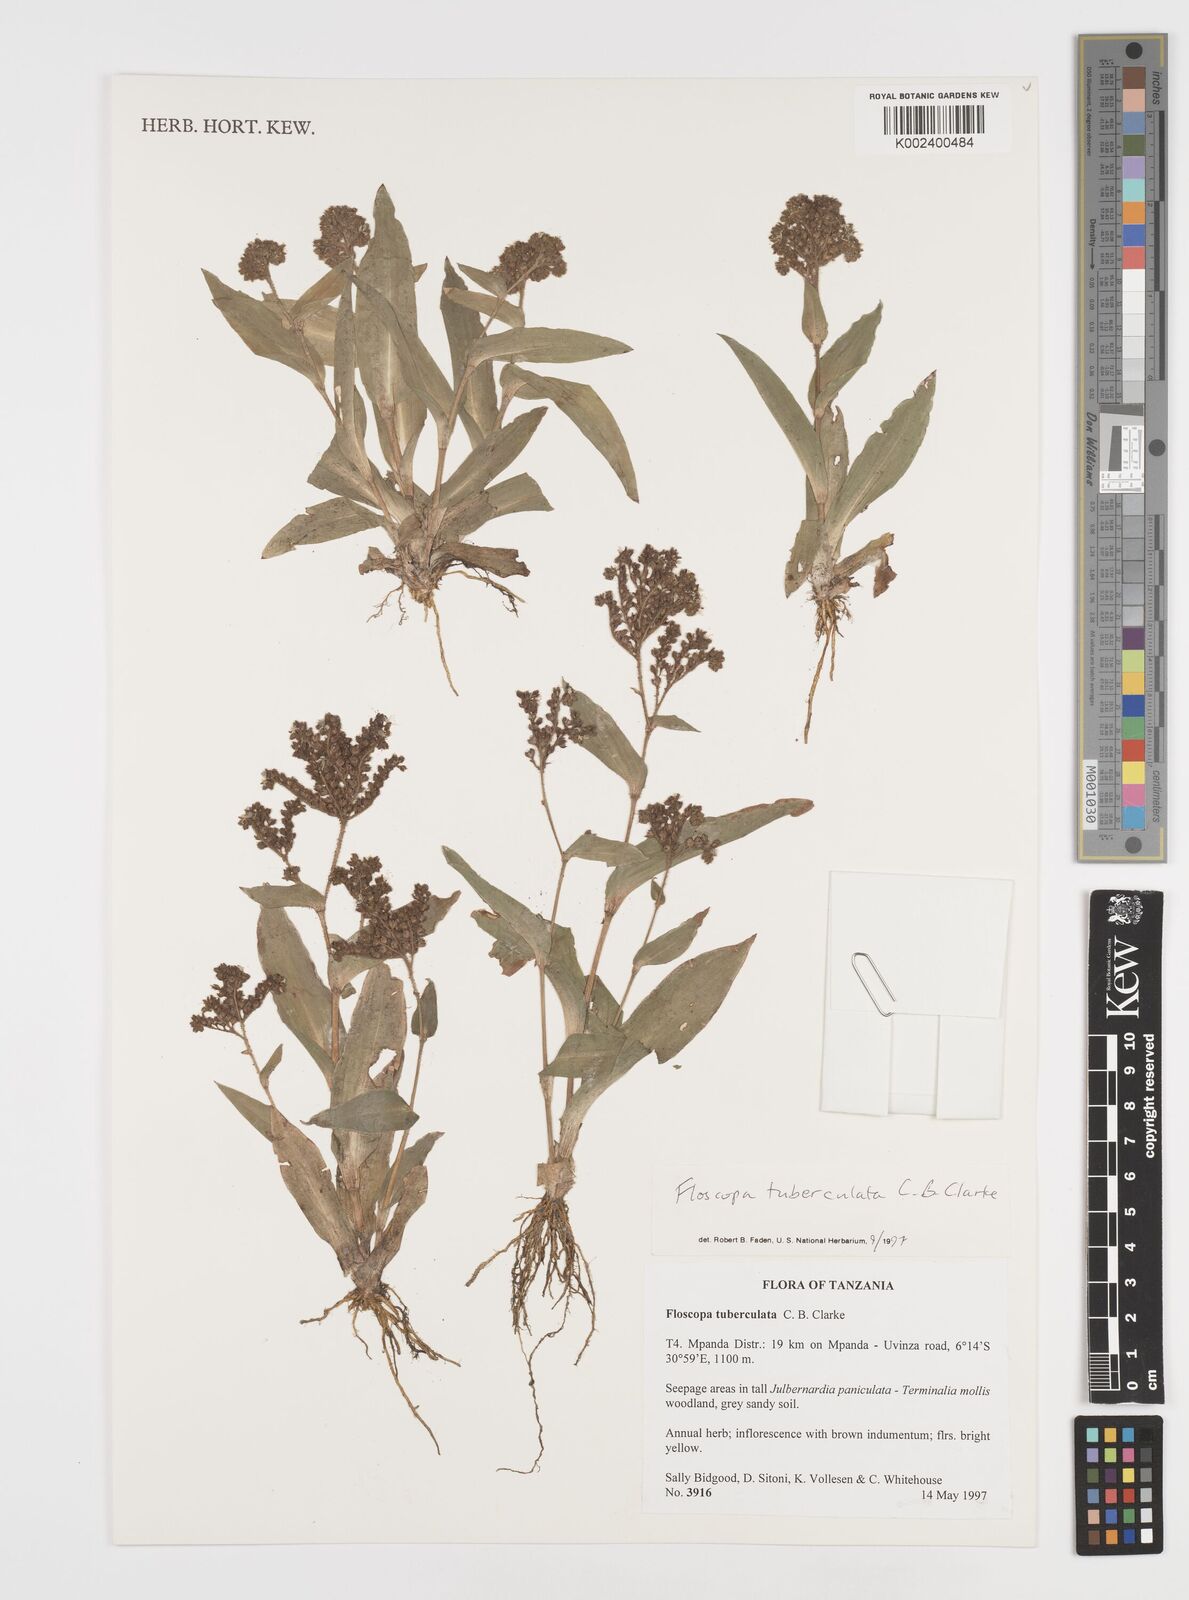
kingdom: Plantae
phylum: Tracheophyta
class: Liliopsida
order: Commelinales
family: Commelinaceae
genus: Floscopa
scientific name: Floscopa tuberculata
